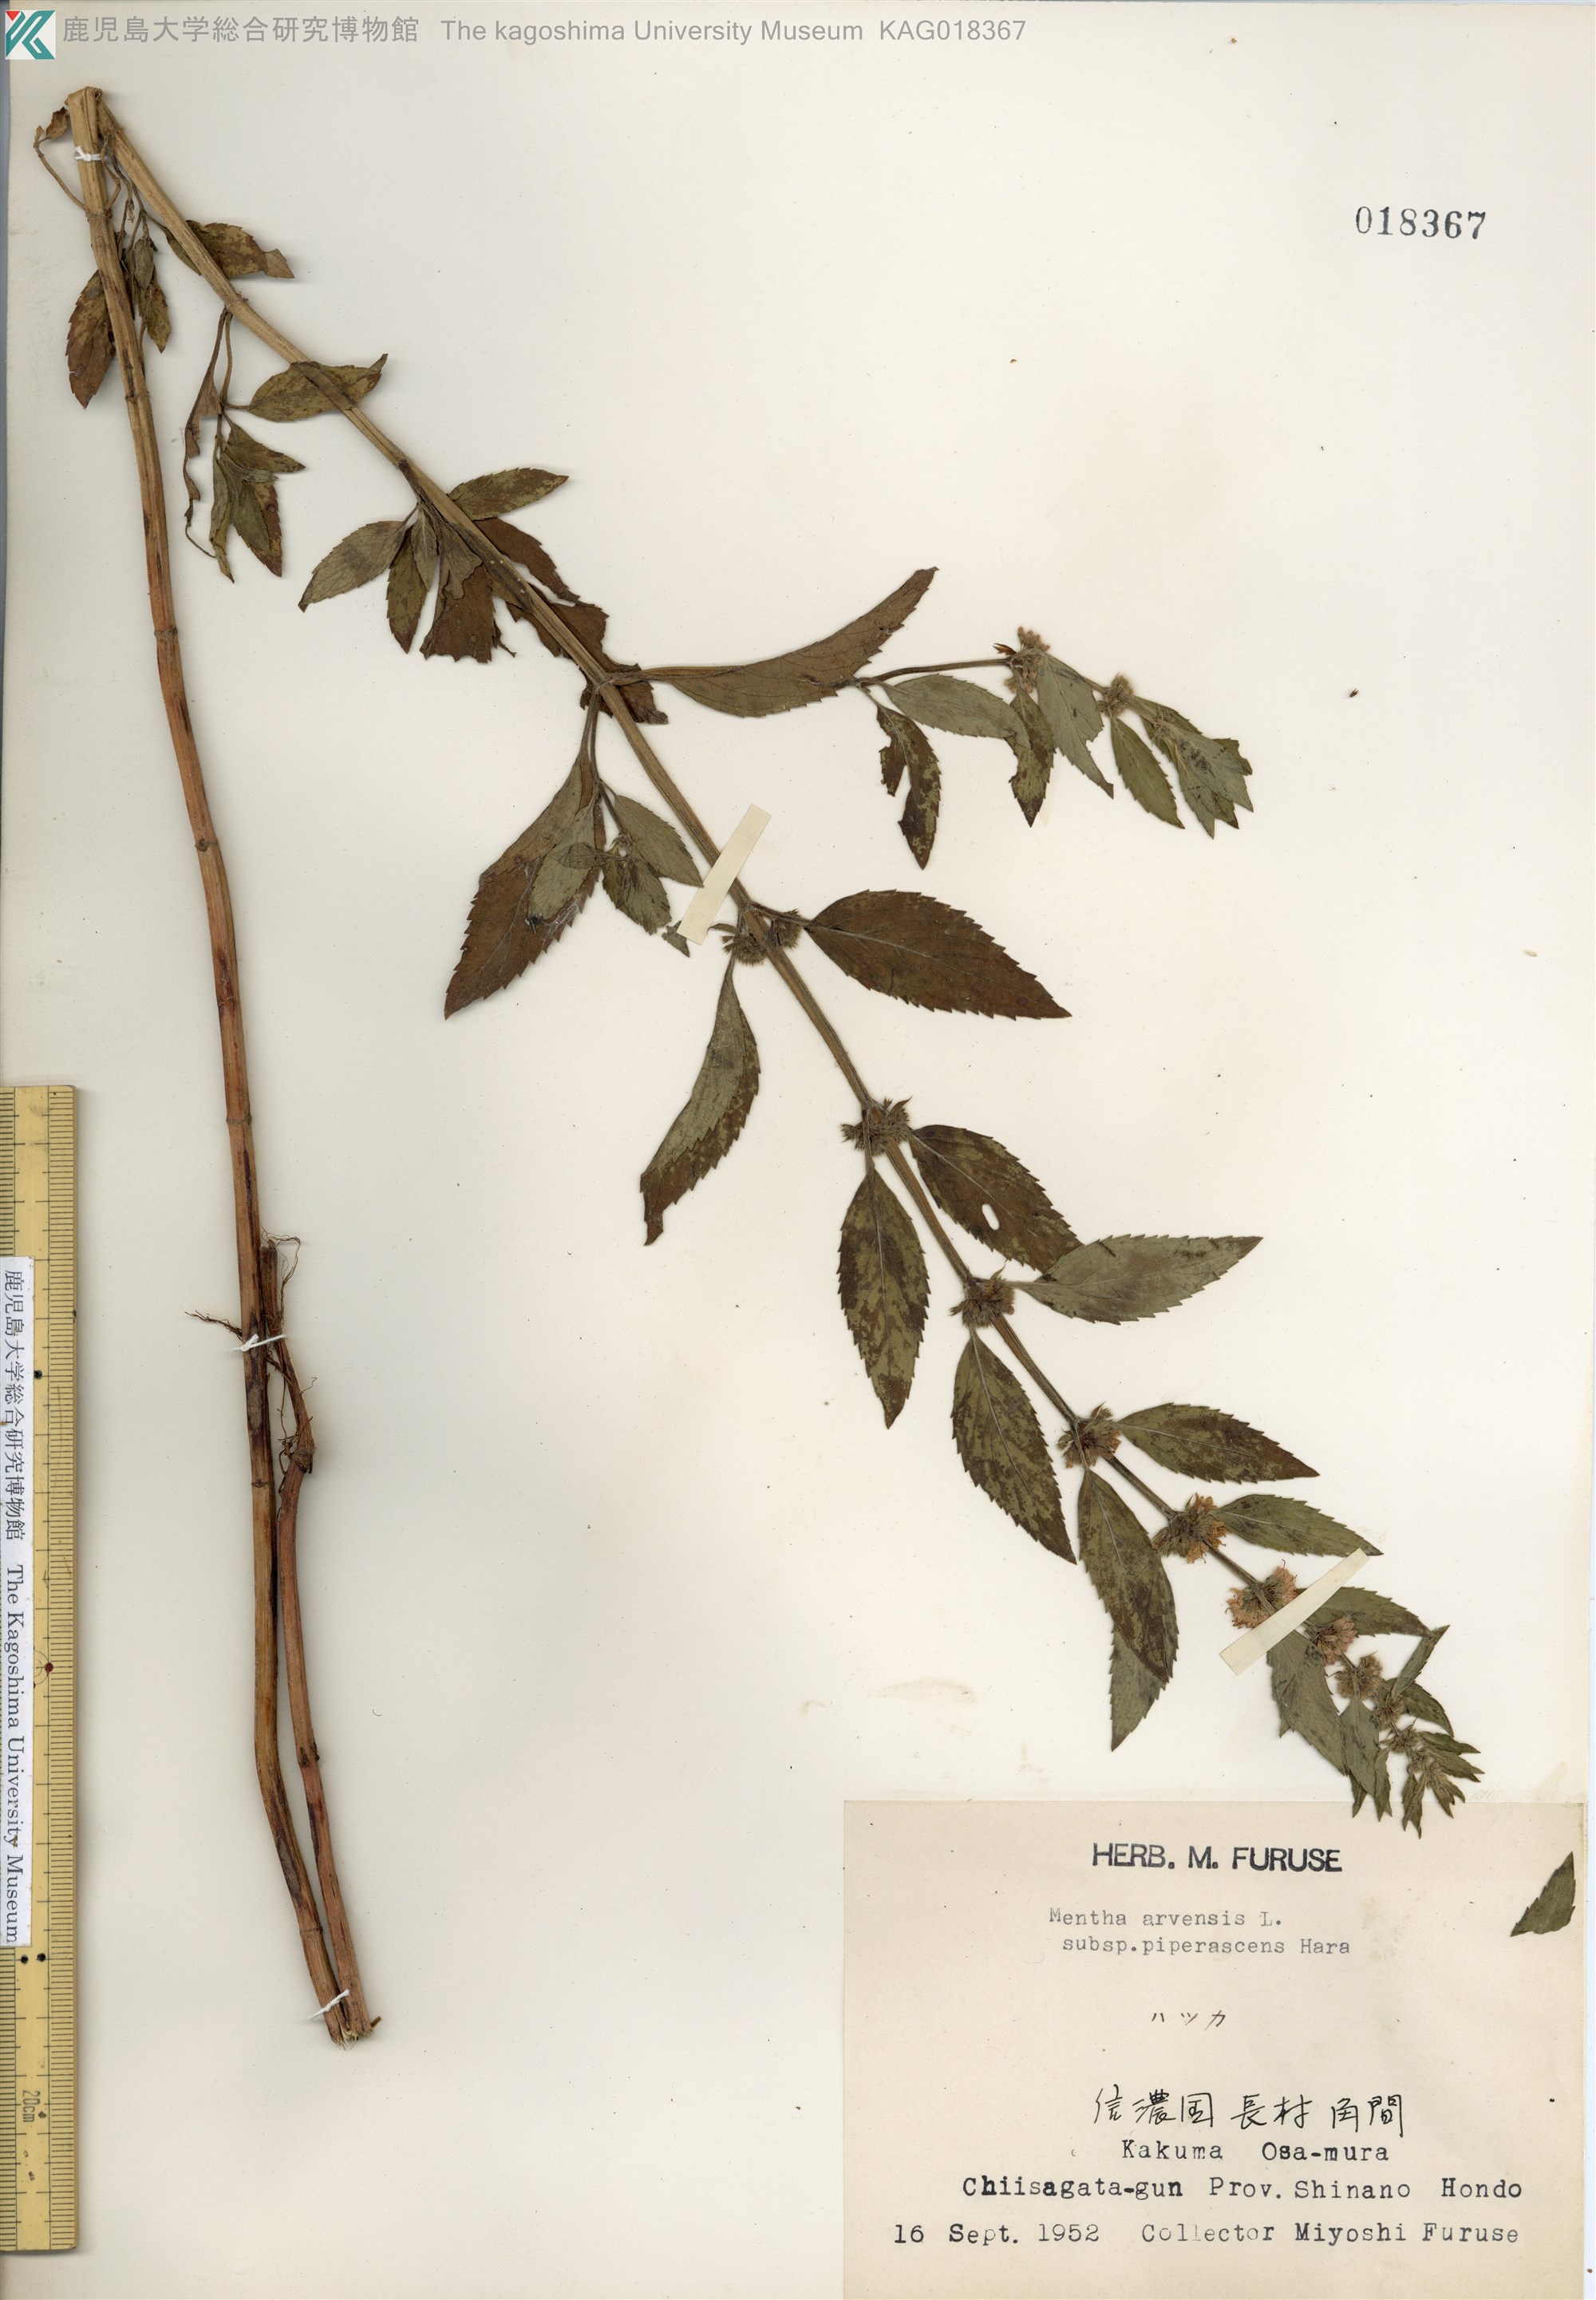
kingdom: Plantae
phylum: Tracheophyta
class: Magnoliopsida
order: Lamiales
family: Lamiaceae
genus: Mentha
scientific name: Mentha canadensis
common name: ハッカ
